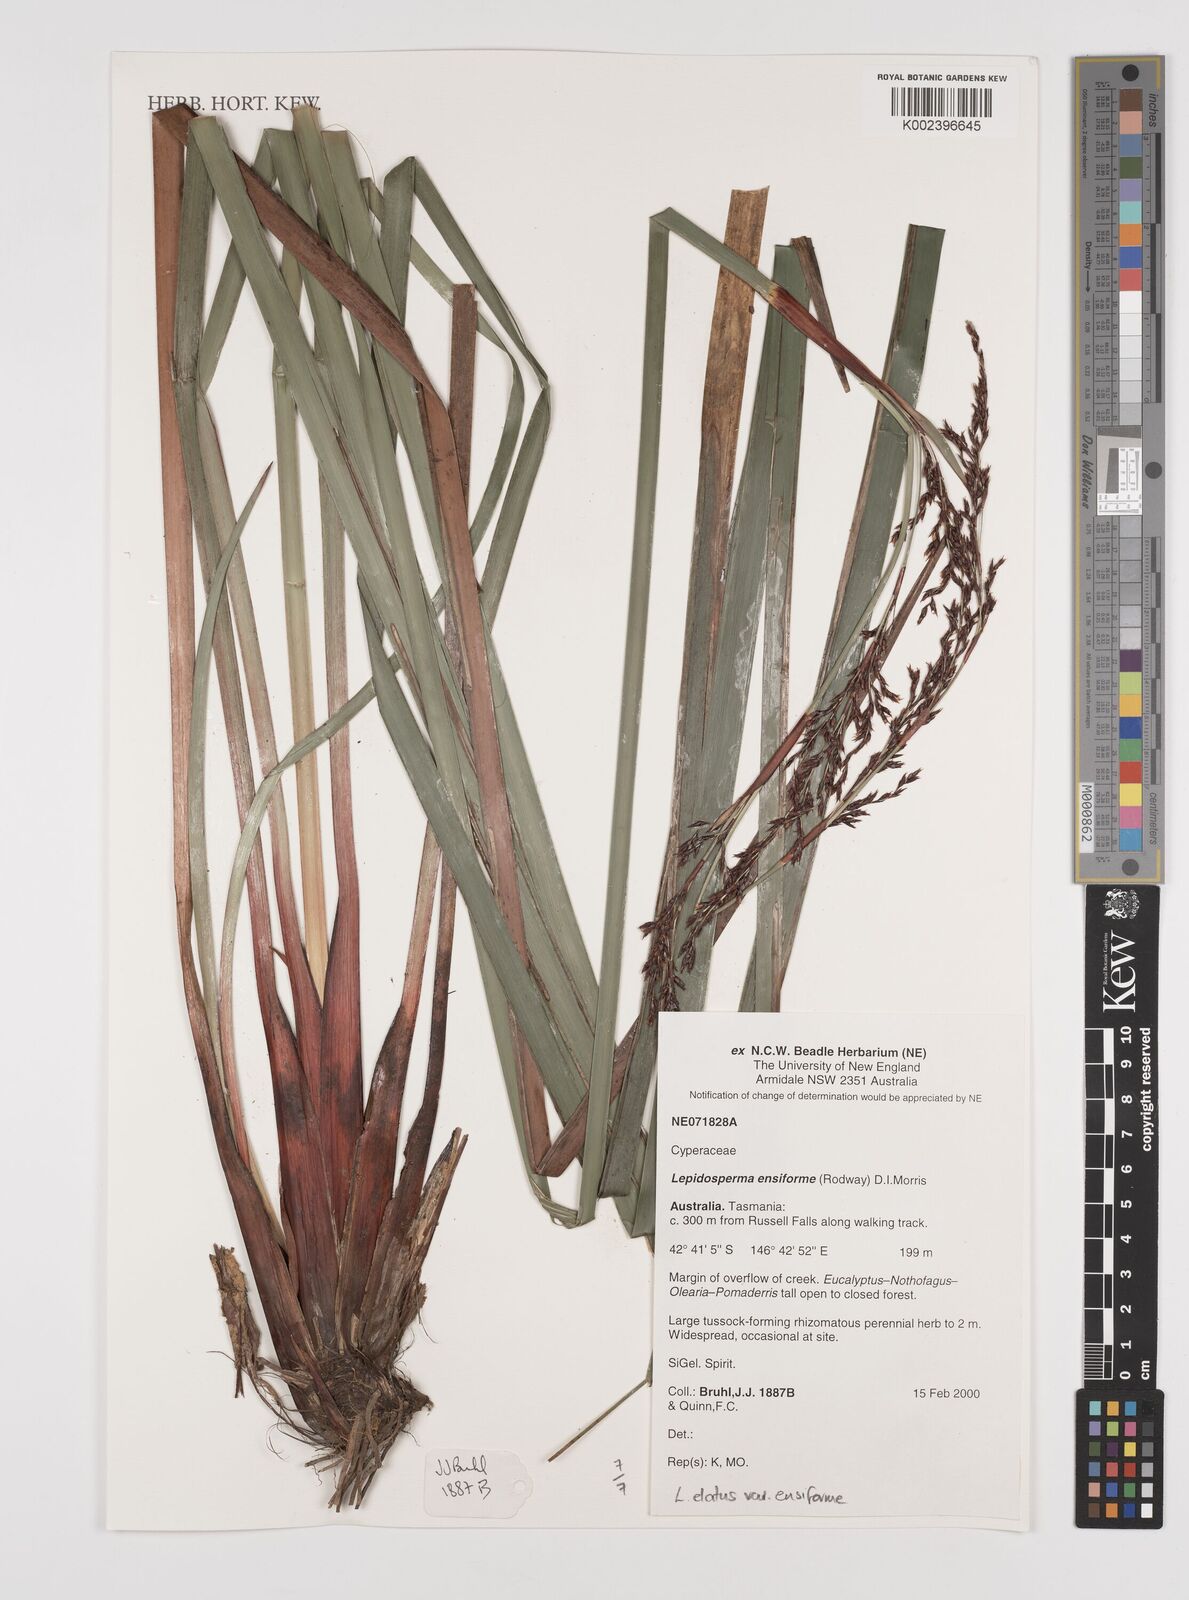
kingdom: Plantae
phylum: Tracheophyta
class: Liliopsida
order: Poales
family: Cyperaceae
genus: Lepidosperma
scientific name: Lepidosperma elatius
